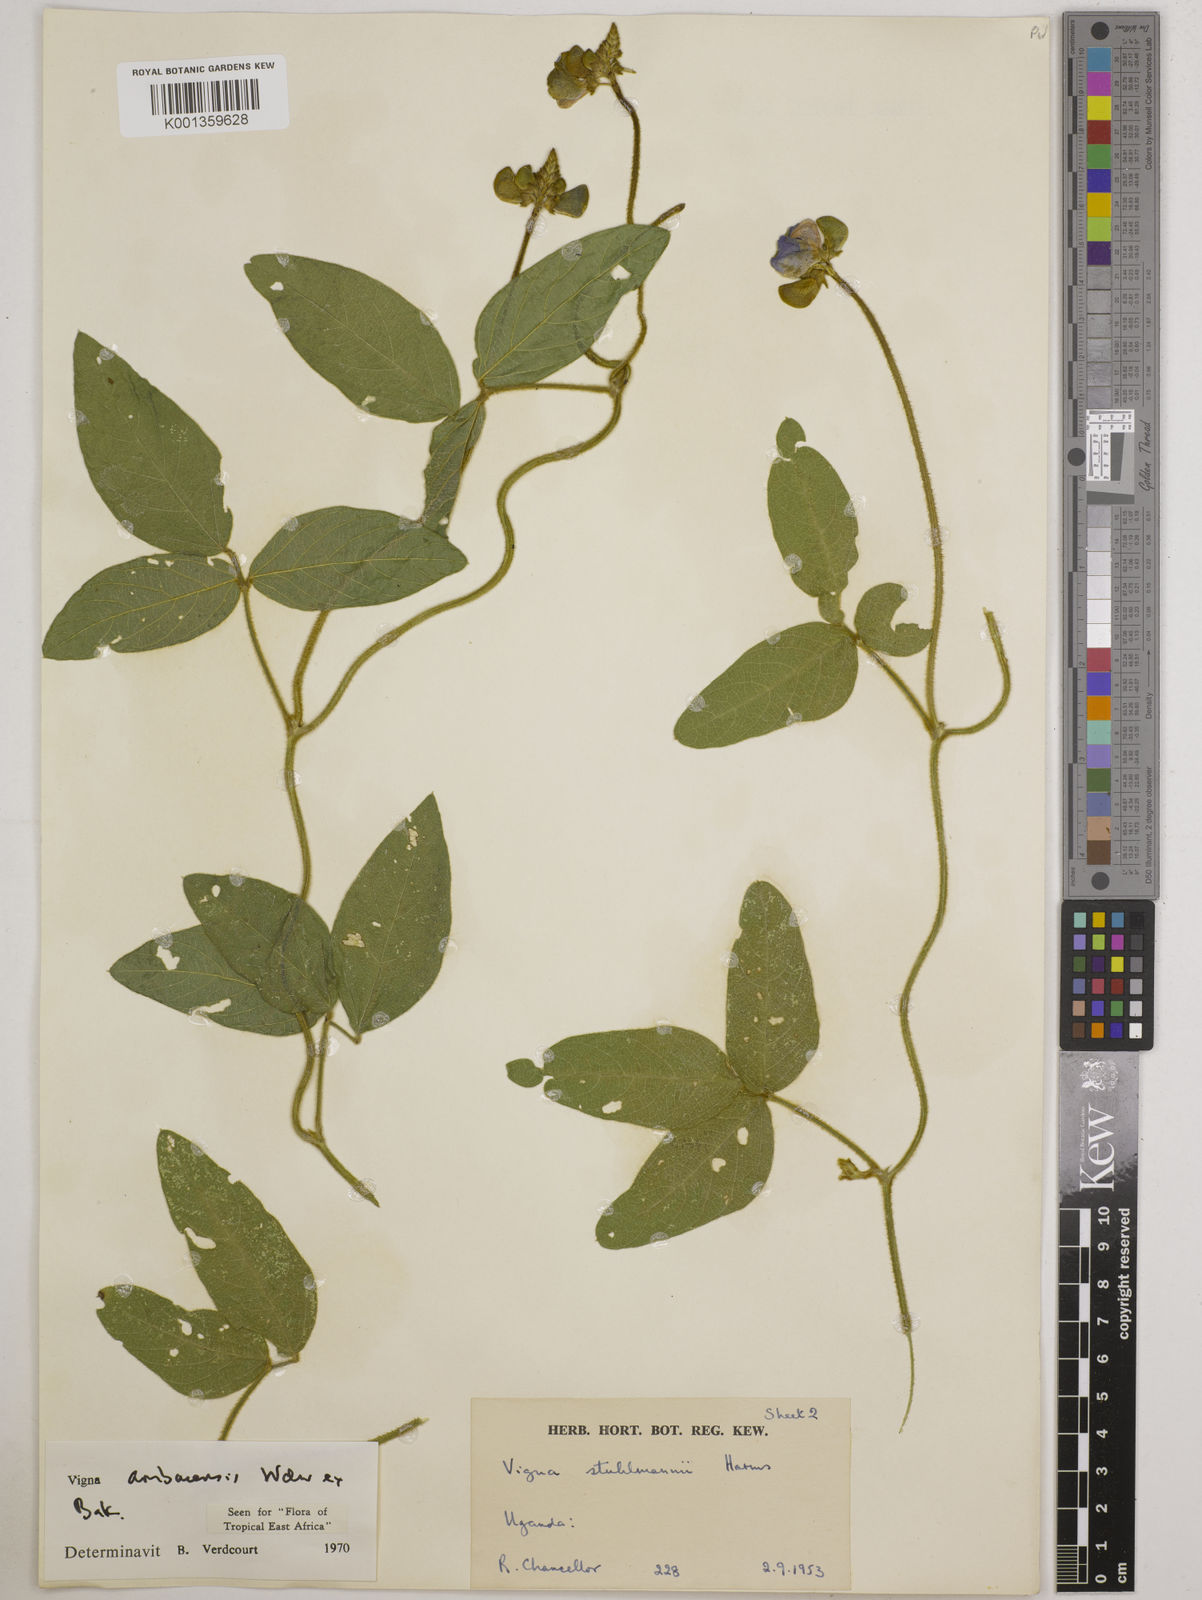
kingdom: Plantae
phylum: Tracheophyta
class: Magnoliopsida
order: Fabales
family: Fabaceae
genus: Vigna
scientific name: Vigna ambacensis
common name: Tsarkiyan zomo
